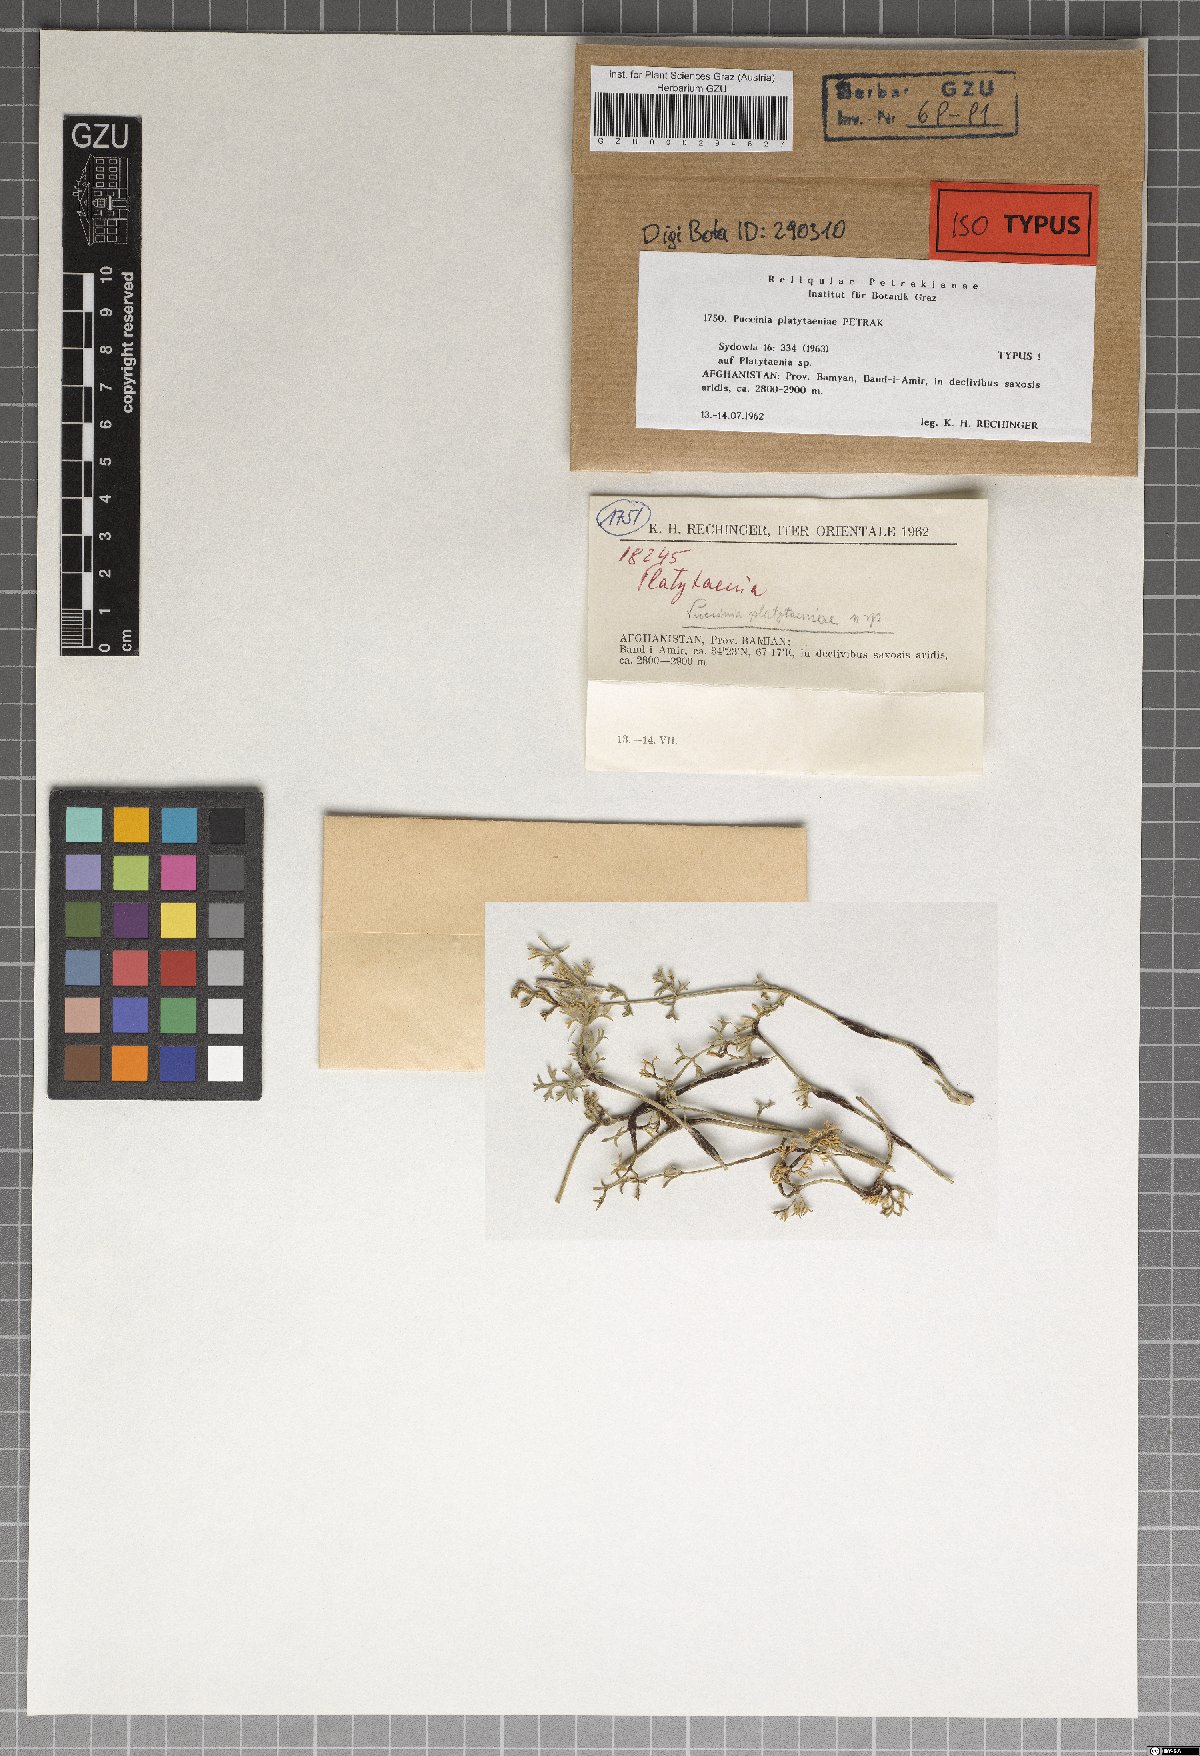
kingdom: Fungi
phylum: Basidiomycota
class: Pucciniomycetes
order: Pucciniales
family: Pucciniaceae
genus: Puccinia
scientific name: Puccinia platytaeniae
